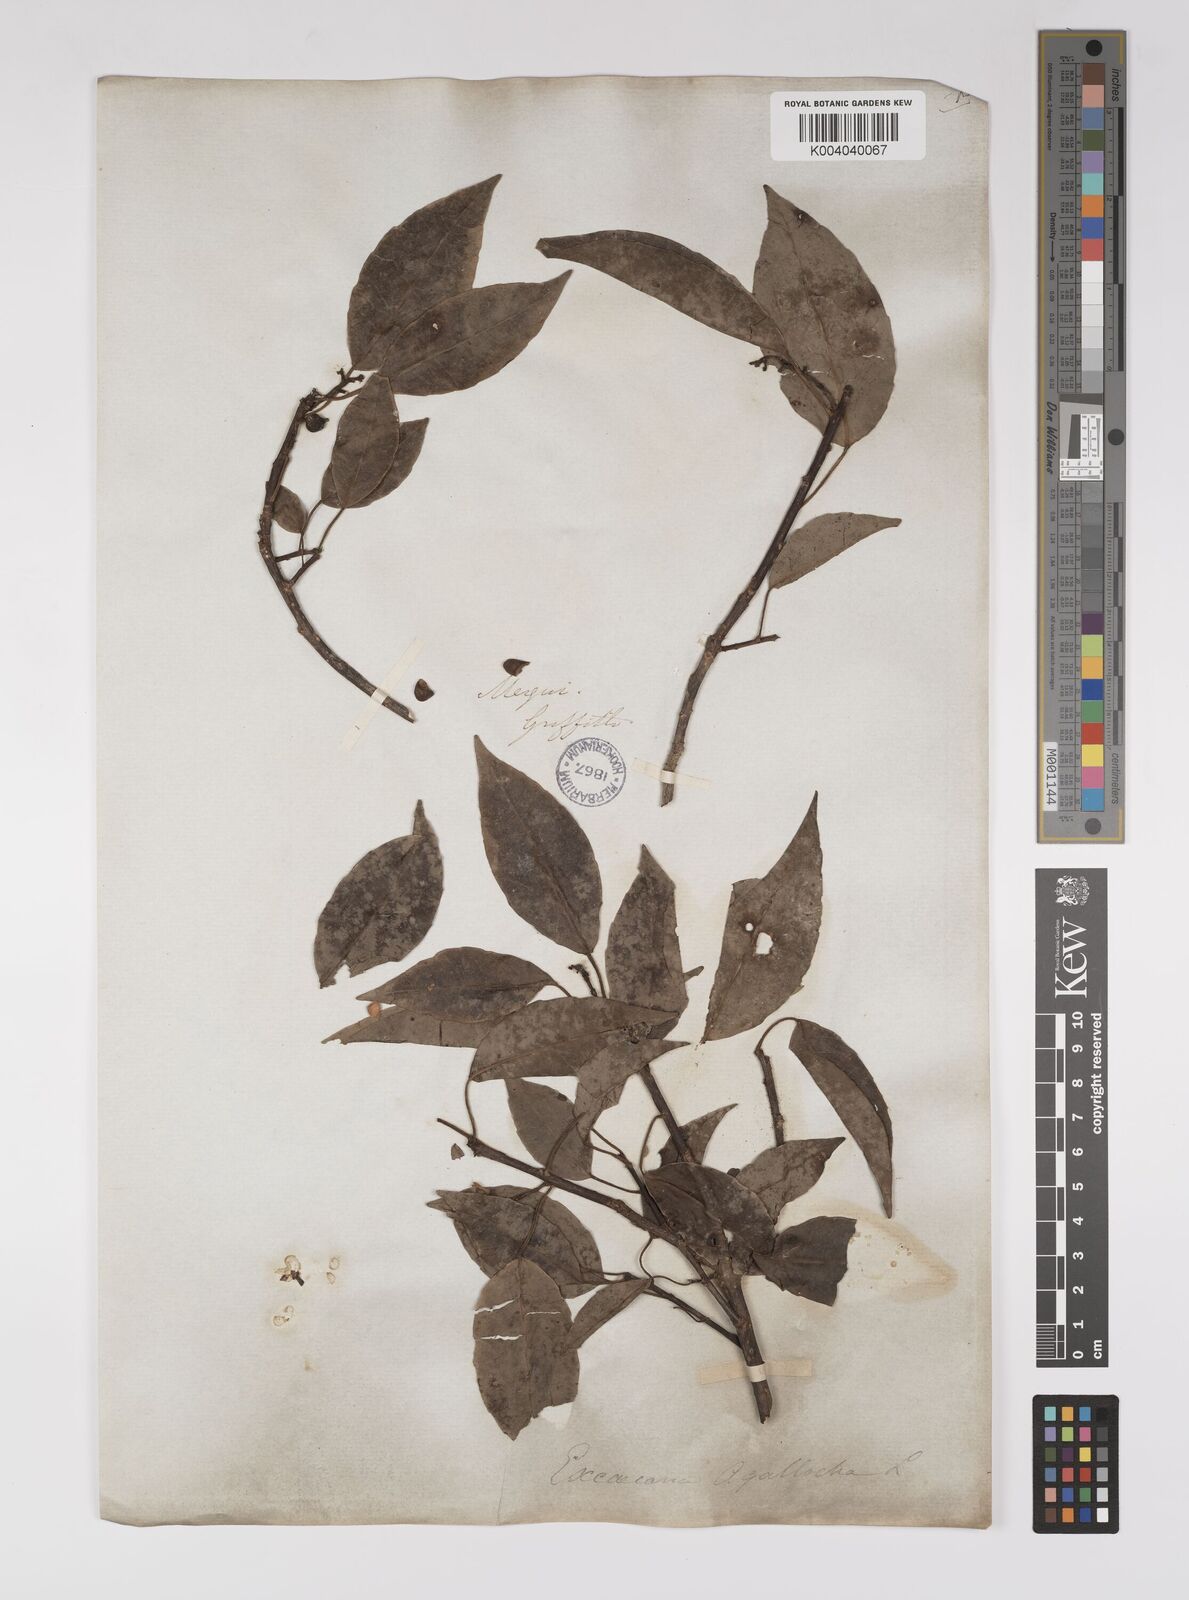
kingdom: Plantae
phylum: Tracheophyta
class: Magnoliopsida
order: Malpighiales
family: Euphorbiaceae
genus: Excoecaria
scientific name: Excoecaria agallocha
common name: River poisontree
